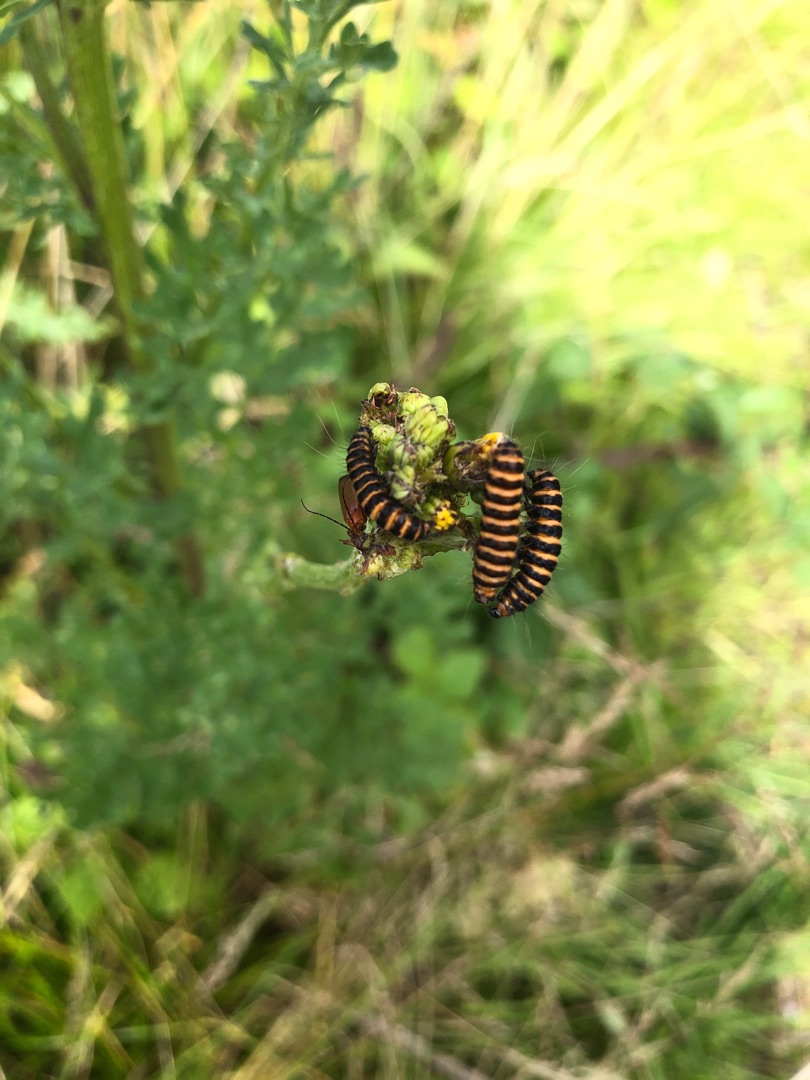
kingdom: Animalia
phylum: Arthropoda
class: Insecta
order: Lepidoptera
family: Erebidae
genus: Tyria
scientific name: Tyria jacobaeae
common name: Blodplet
